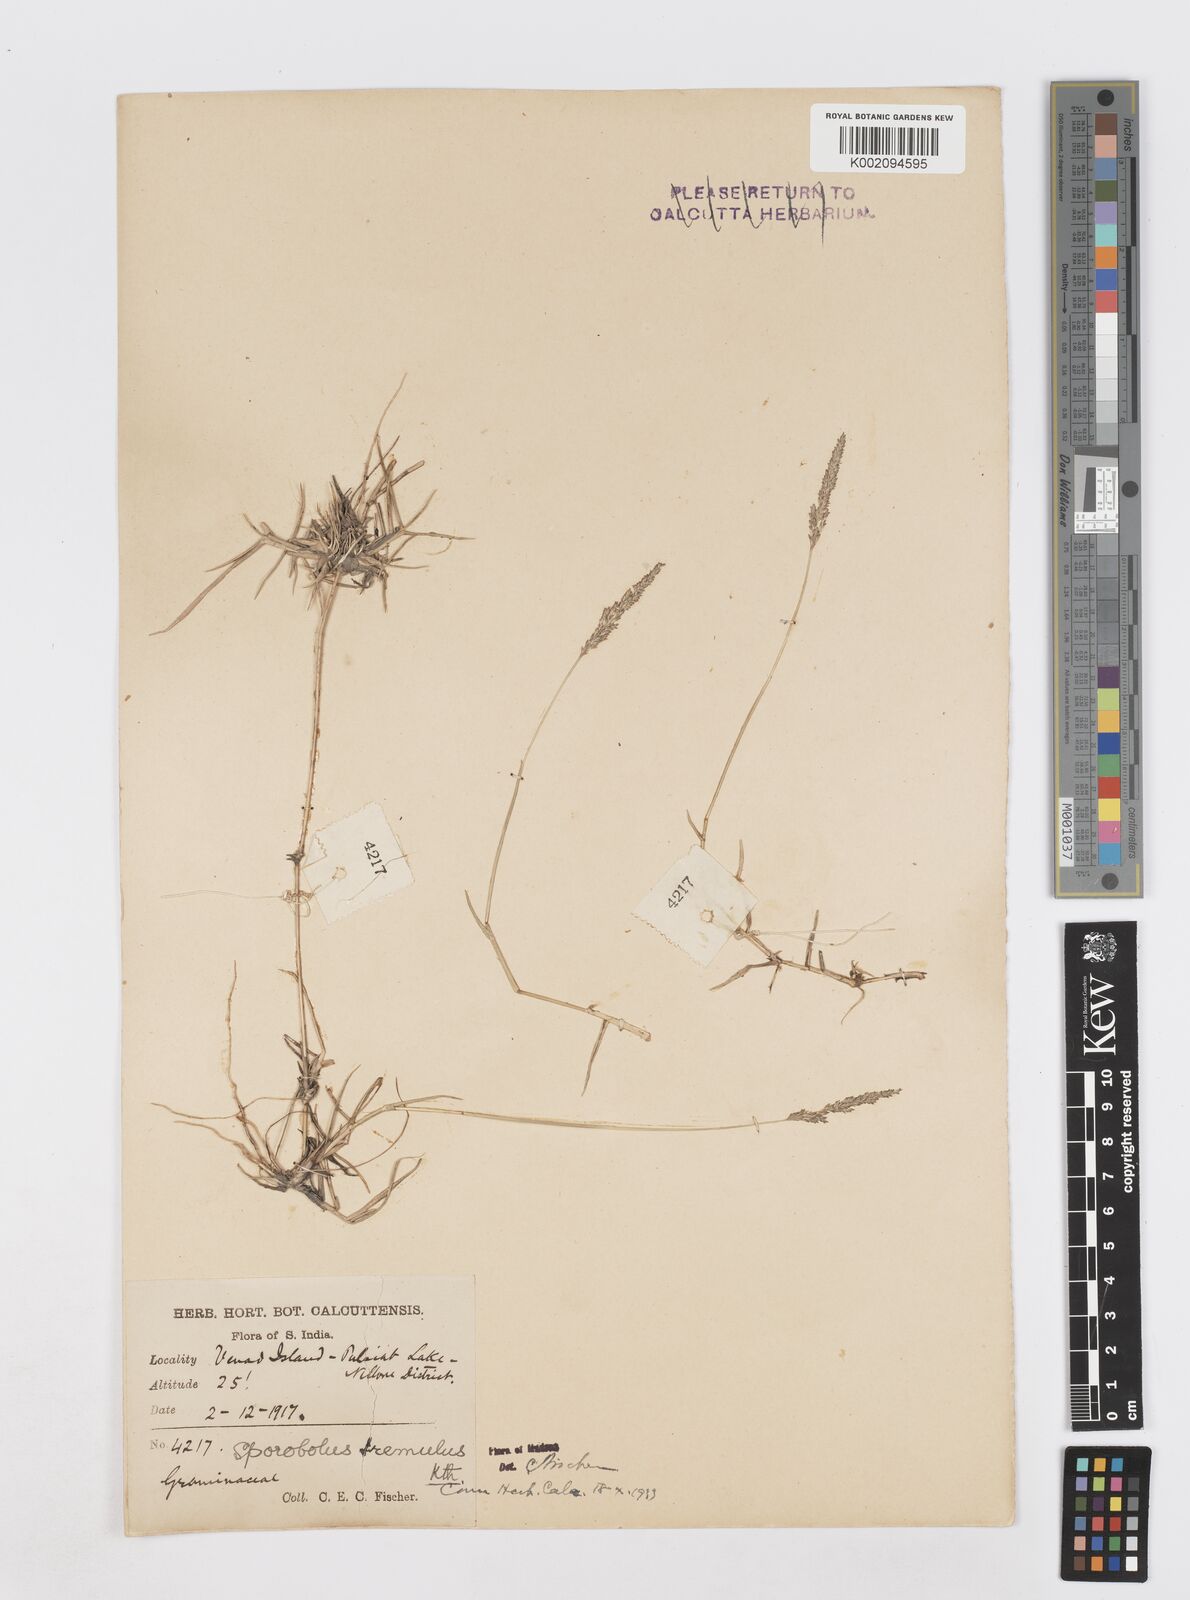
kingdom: Plantae
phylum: Tracheophyta
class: Liliopsida
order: Poales
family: Poaceae
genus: Sporobolus
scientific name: Sporobolus virginicus
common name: Beach dropseed
